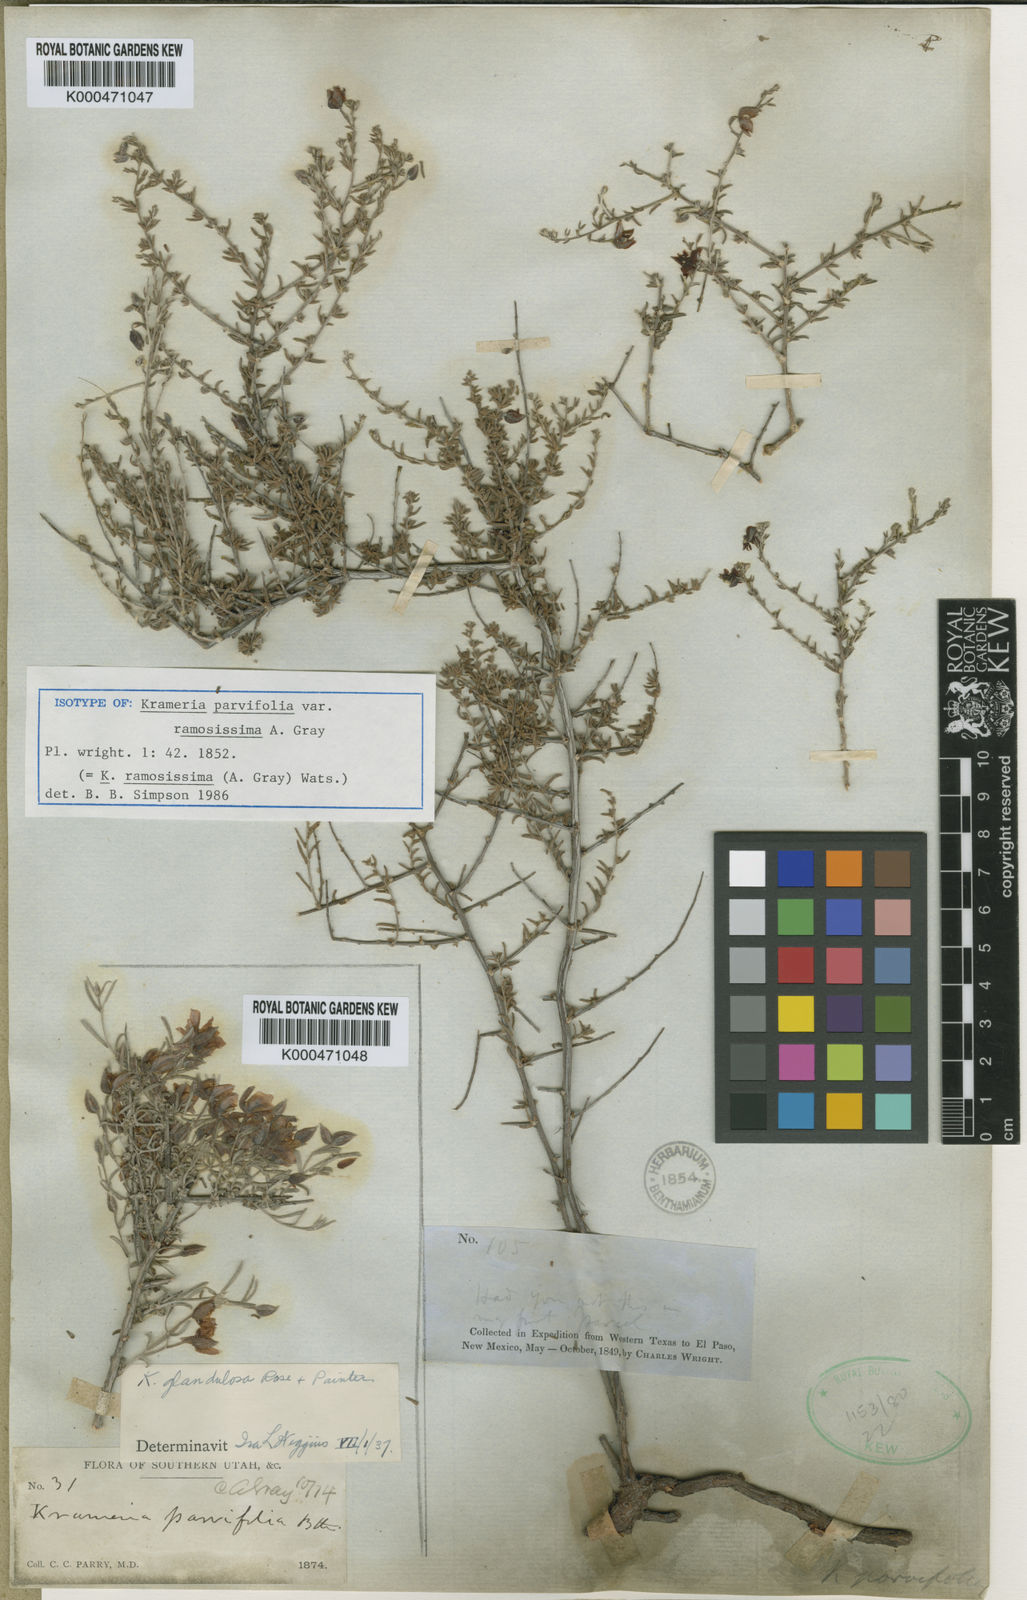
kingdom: Plantae
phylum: Tracheophyta
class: Magnoliopsida
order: Zygophyllales
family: Krameriaceae
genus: Krameria
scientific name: Krameria ramosissima
